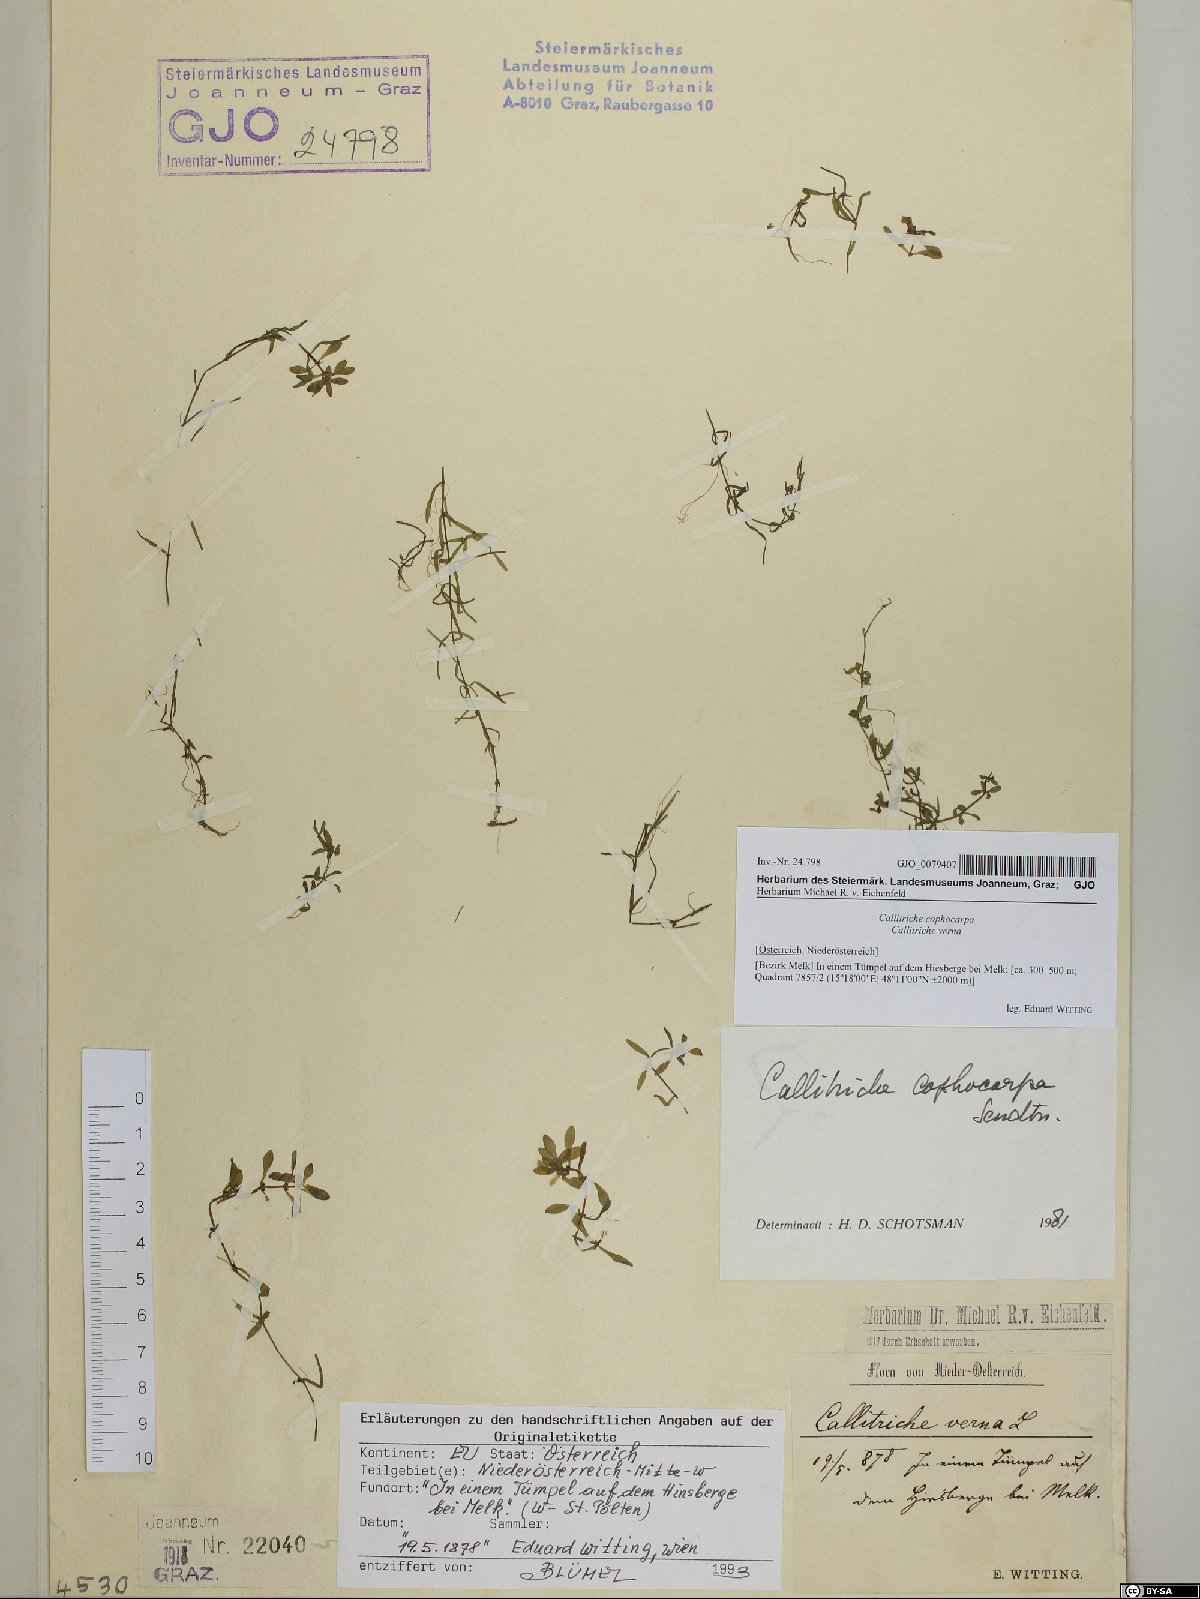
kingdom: Plantae
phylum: Tracheophyta
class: Magnoliopsida
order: Lamiales
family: Plantaginaceae
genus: Callitriche
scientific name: Callitriche cophocarpa
